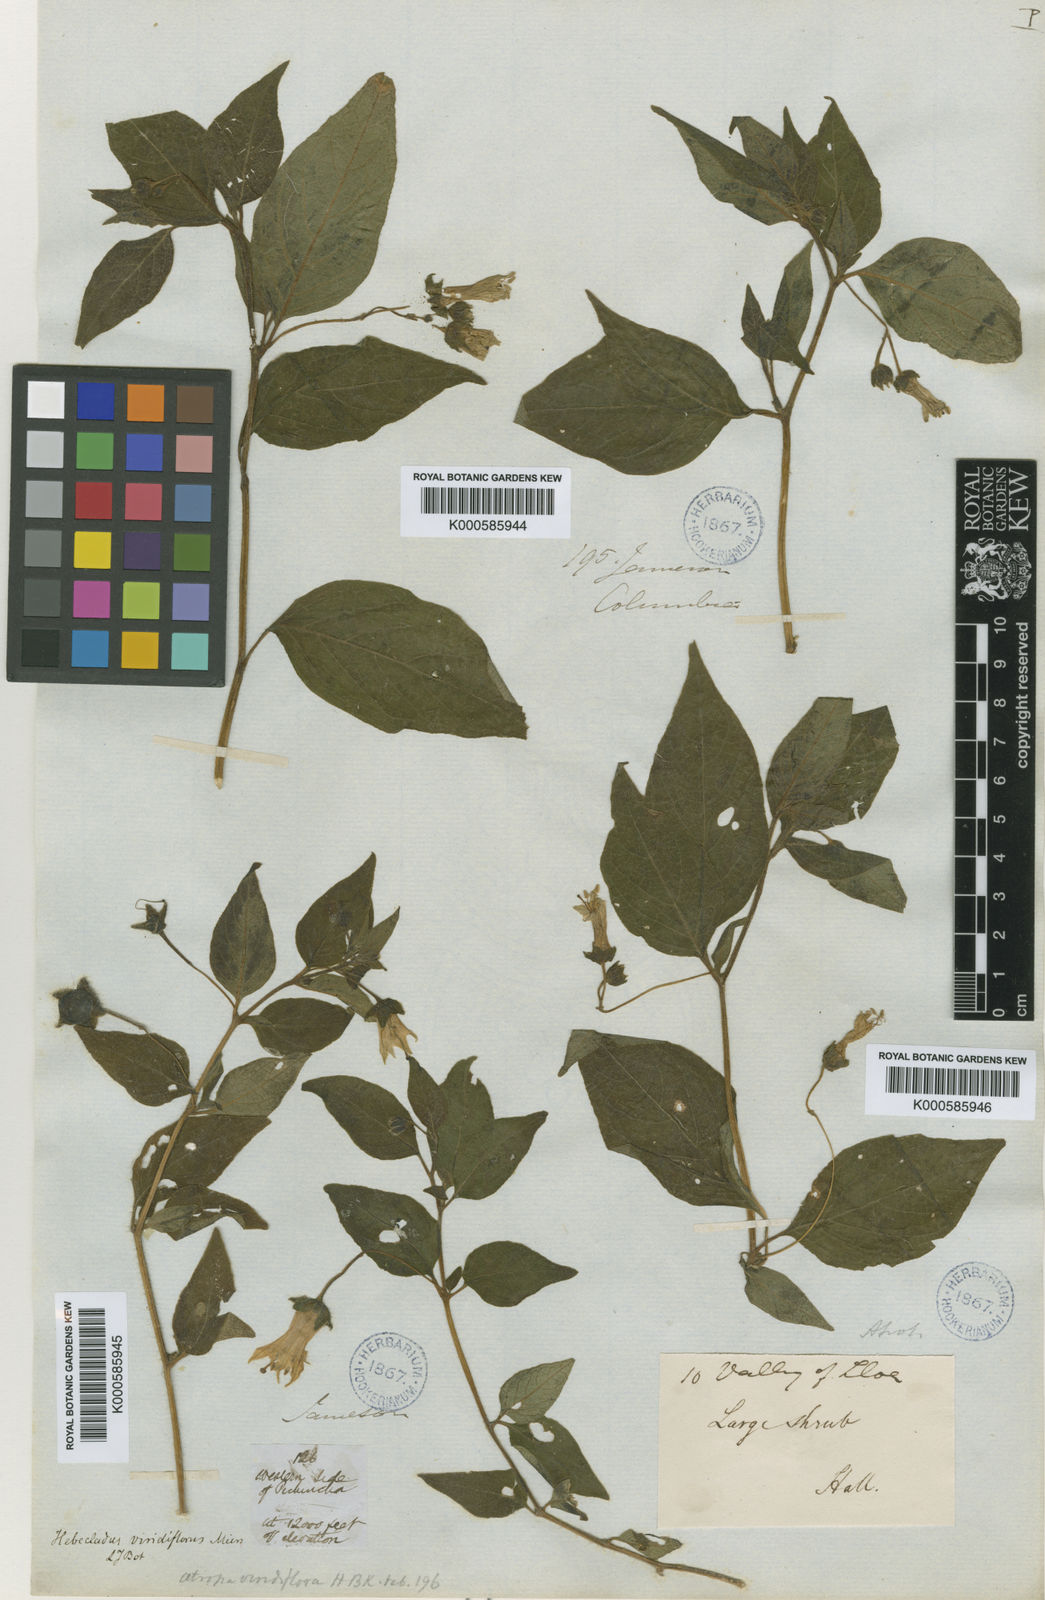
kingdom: Plantae
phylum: Tracheophyta
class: Magnoliopsida
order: Solanales
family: Solanaceae
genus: Jaltomata
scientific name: Jaltomata viridiflora
